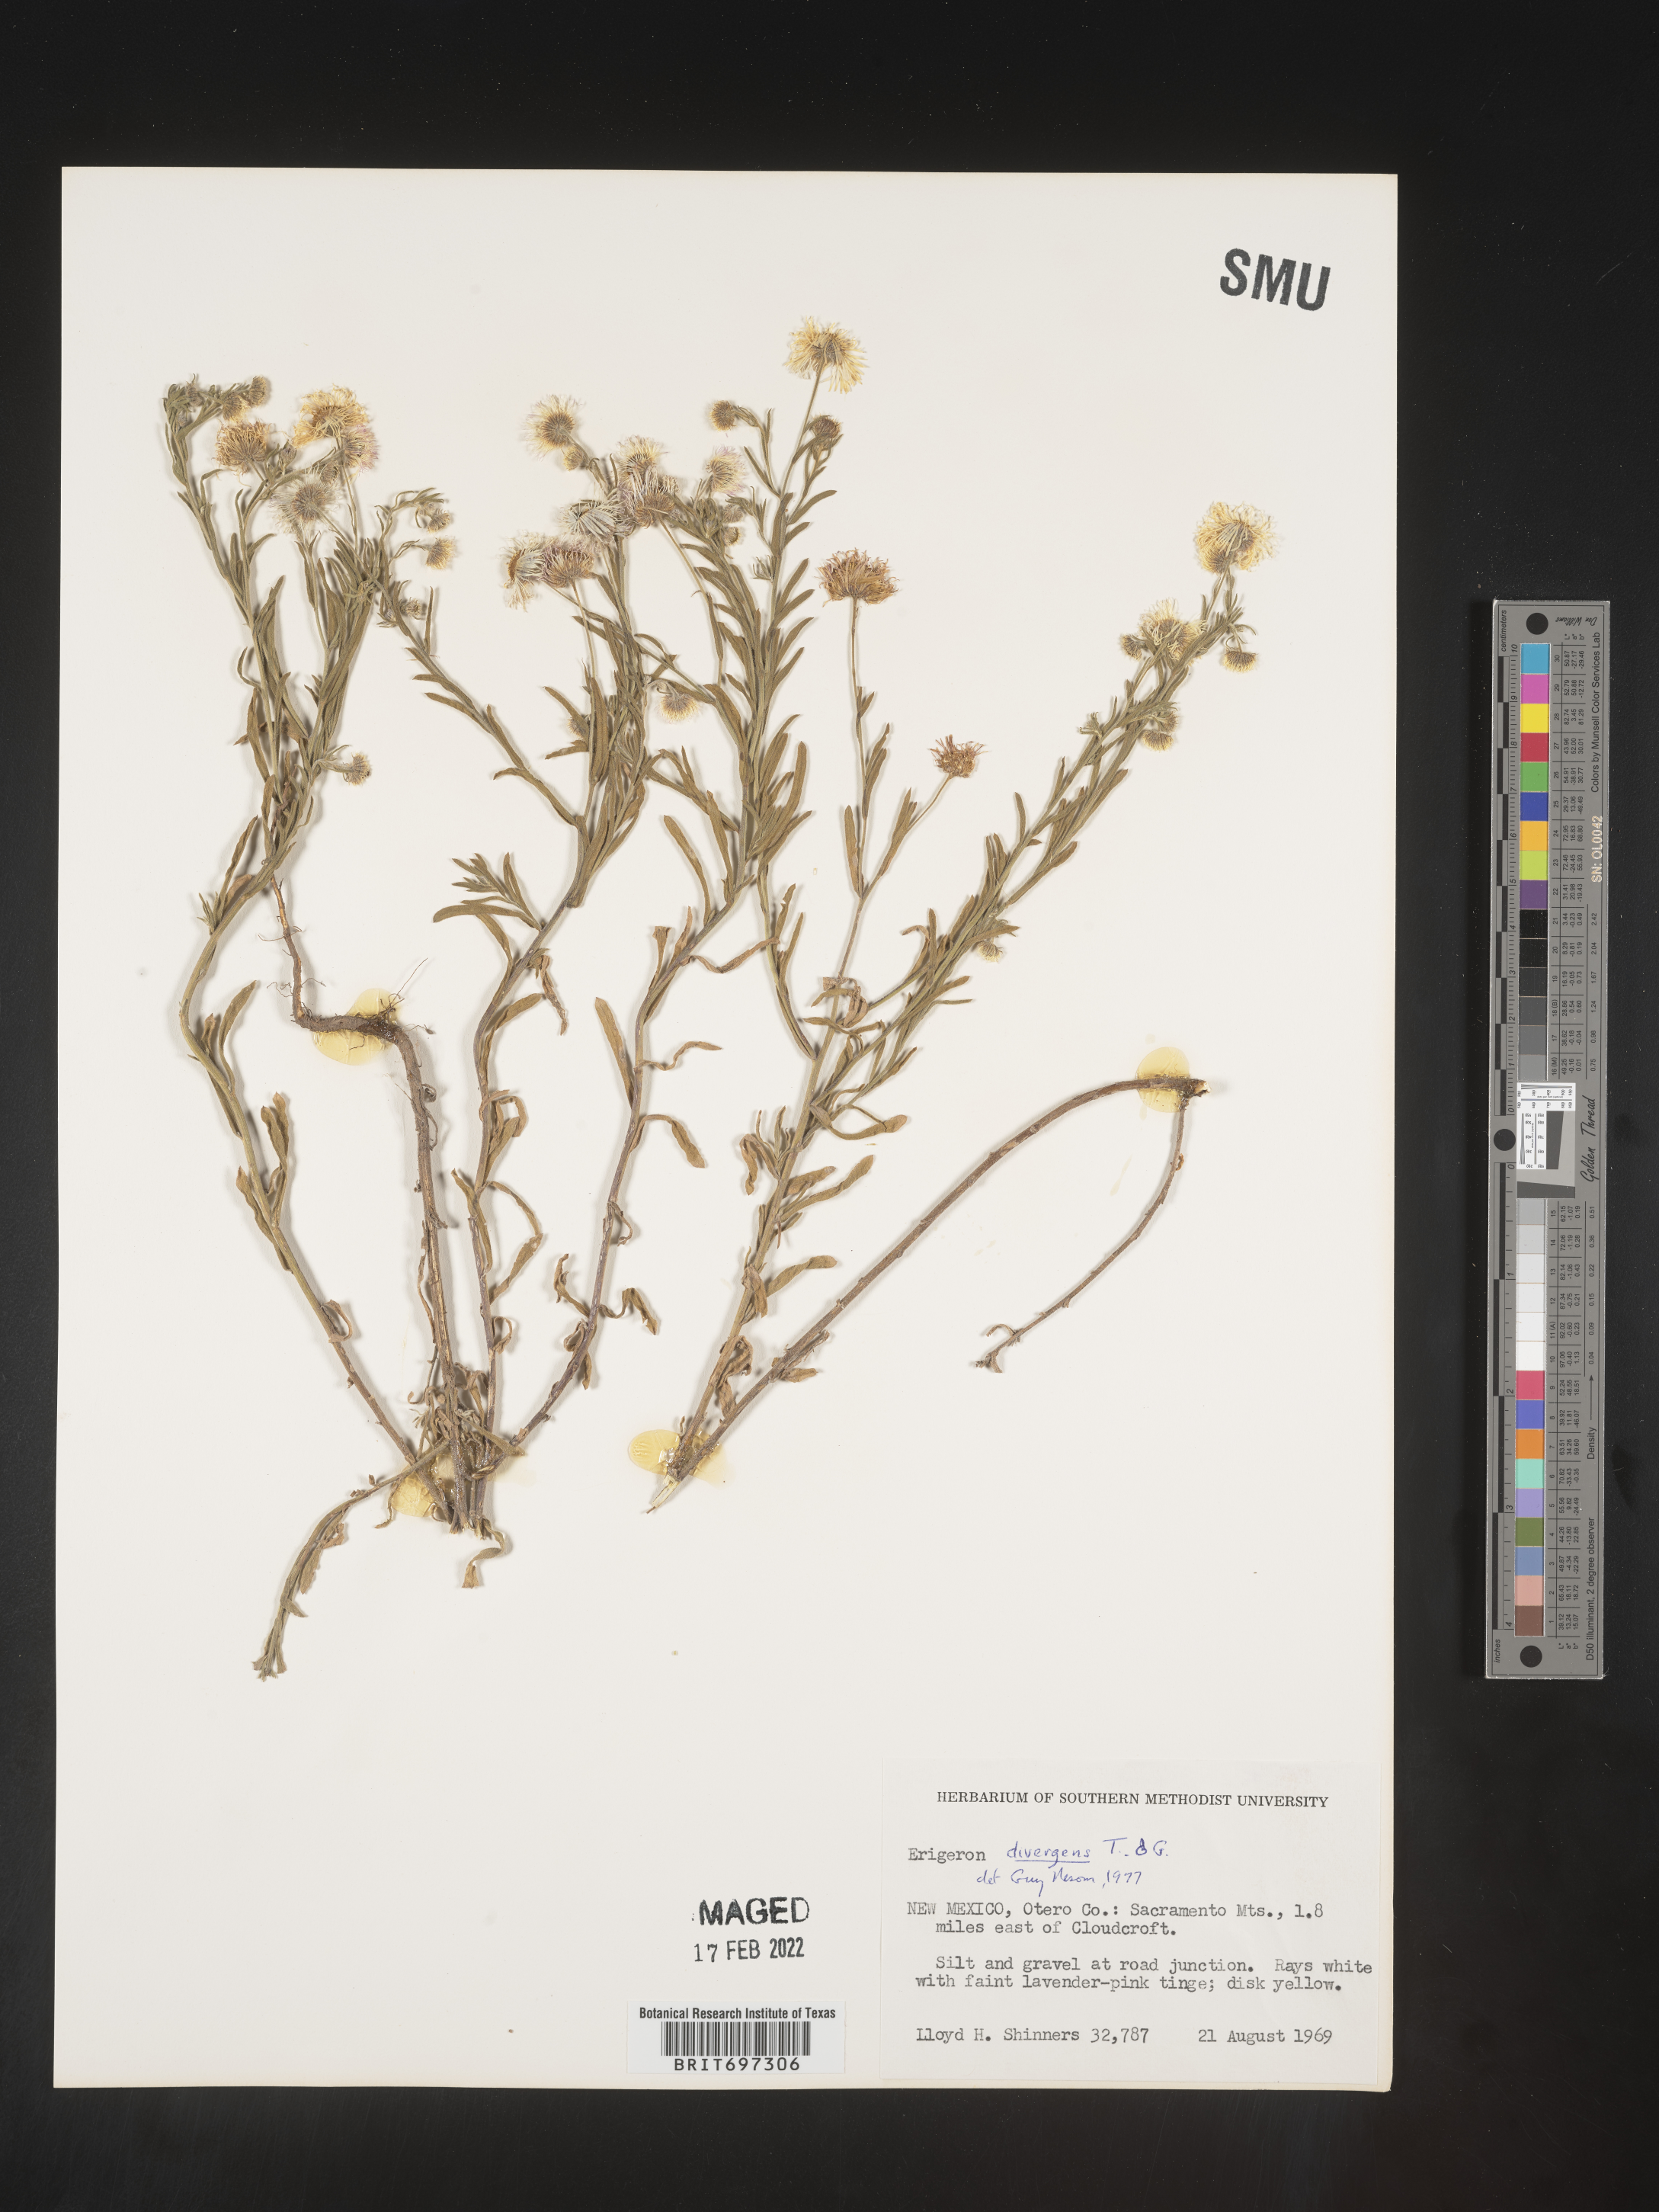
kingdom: Plantae
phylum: Tracheophyta
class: Magnoliopsida
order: Asterales
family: Asteraceae
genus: Erigeron
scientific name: Erigeron divergens
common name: Diffuse fleabane
